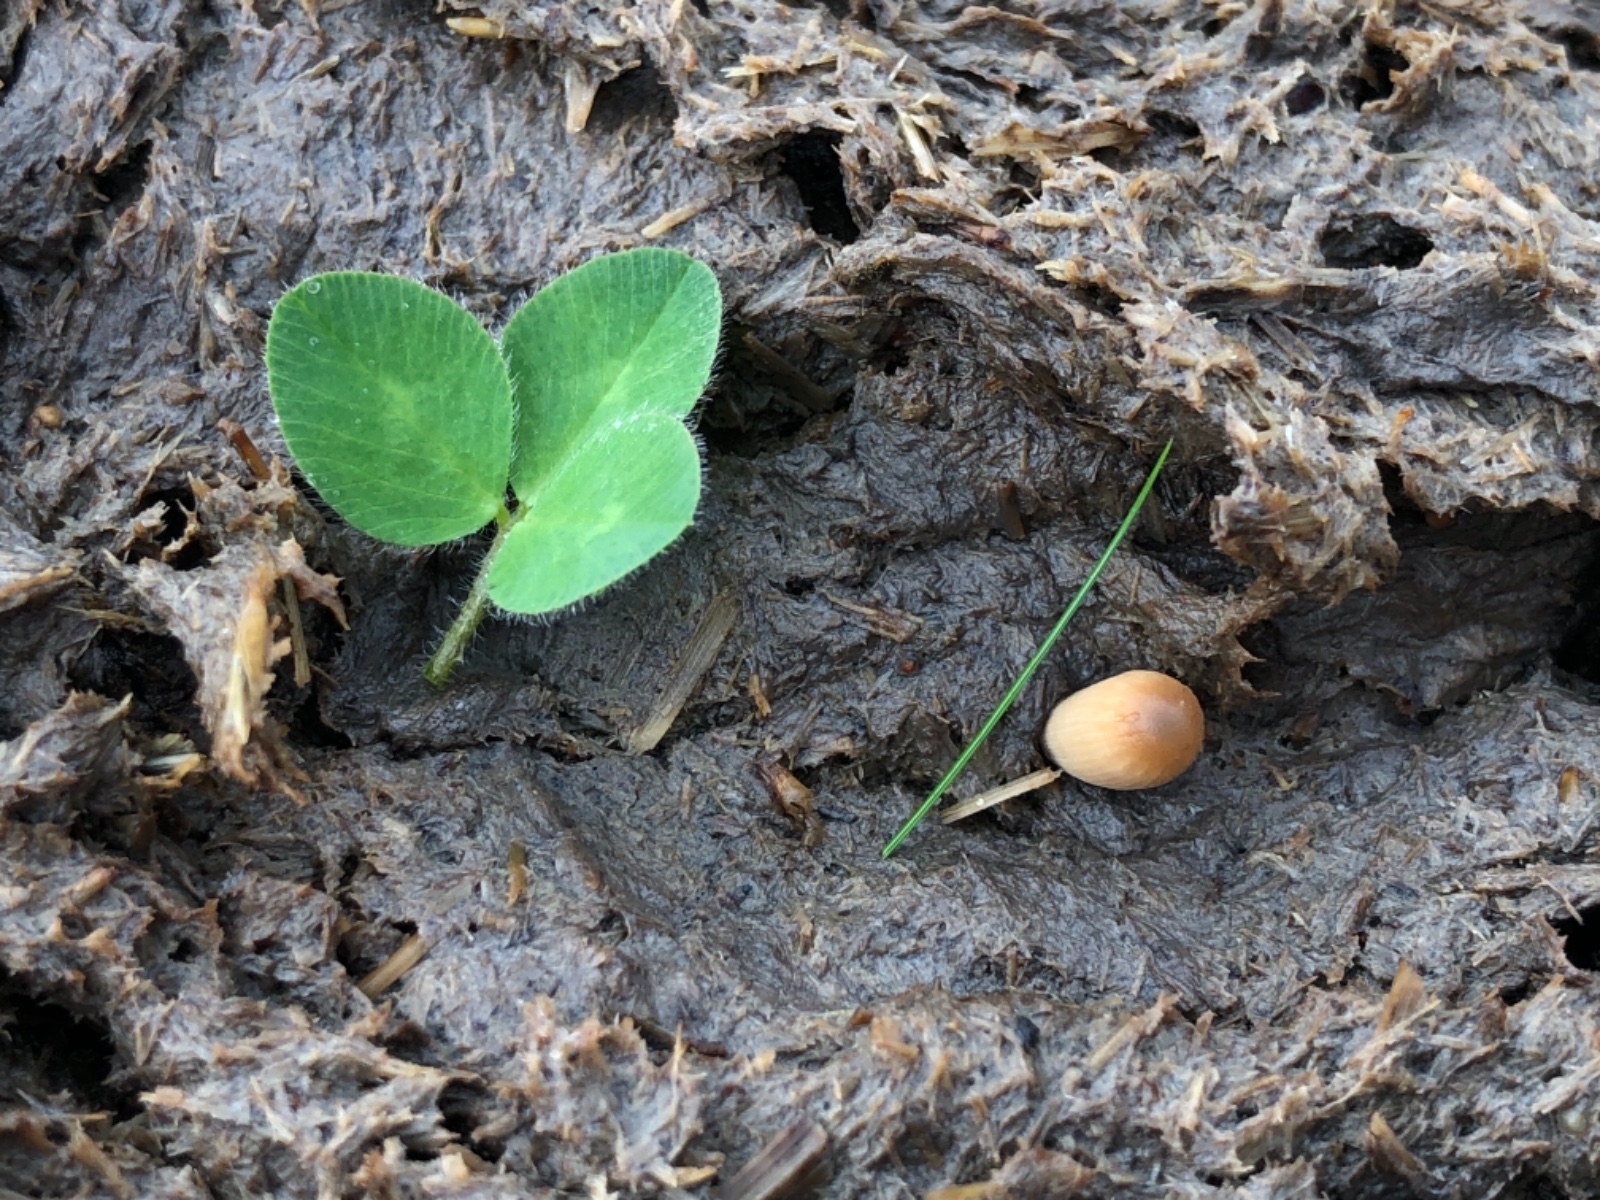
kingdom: Fungi
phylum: Basidiomycota
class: Agaricomycetes
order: Agaricales
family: Psathyrellaceae
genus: Tulosesus
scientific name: Tulosesus
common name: blækhat
